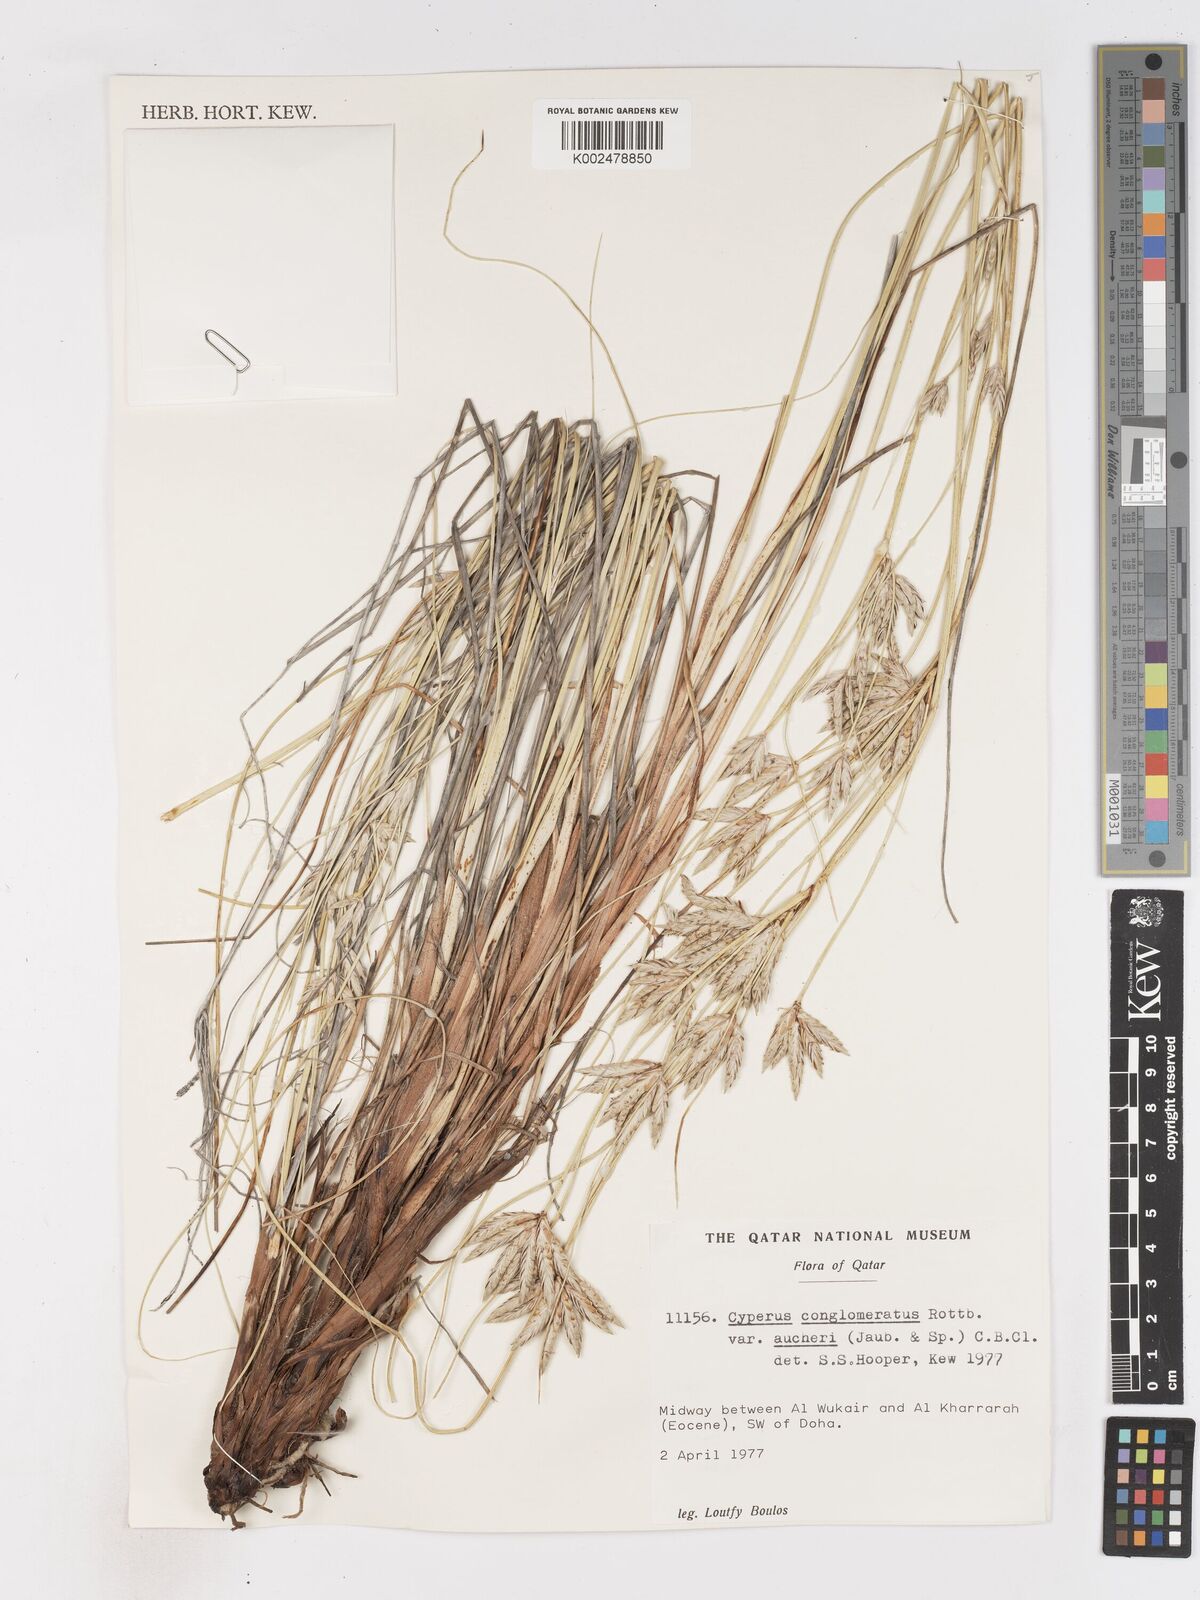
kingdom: Plantae
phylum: Tracheophyta
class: Liliopsida
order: Poales
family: Cyperaceae
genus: Cyperus
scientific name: Cyperus aucheri
